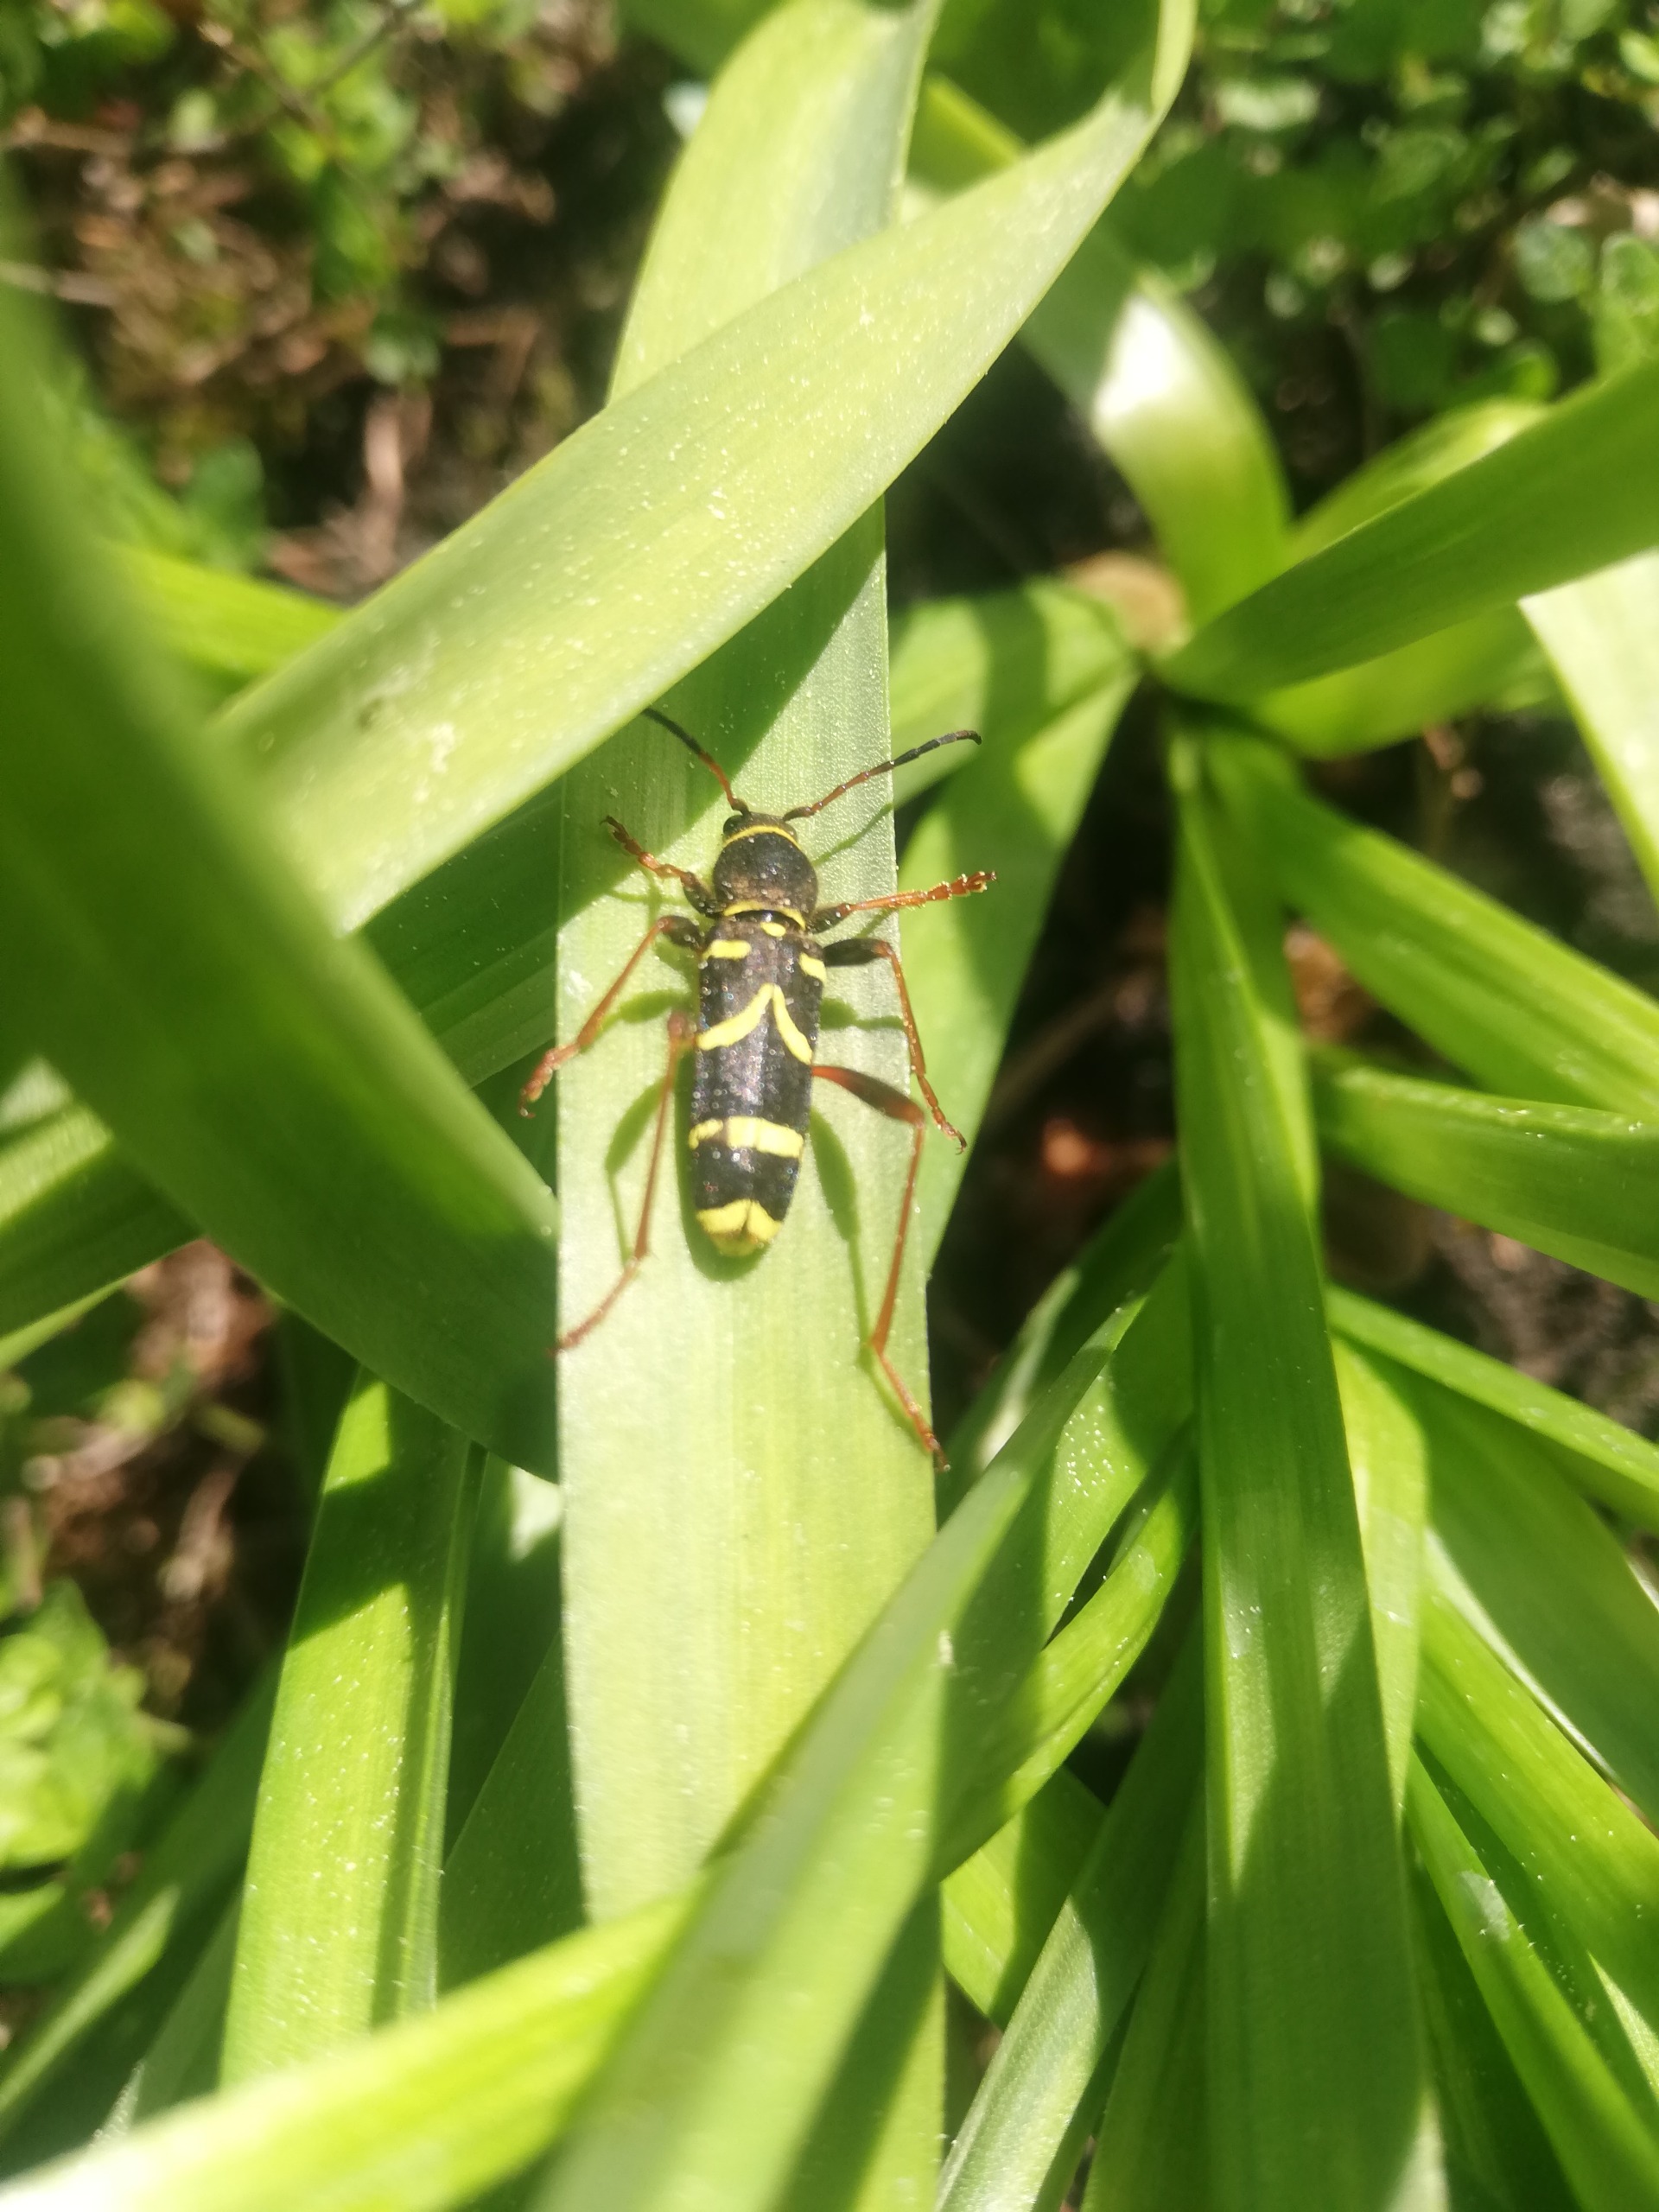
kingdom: Animalia
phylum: Arthropoda
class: Insecta
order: Coleoptera
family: Cerambycidae
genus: Clytus
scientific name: Clytus arietis
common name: Lille hvepsebuk
